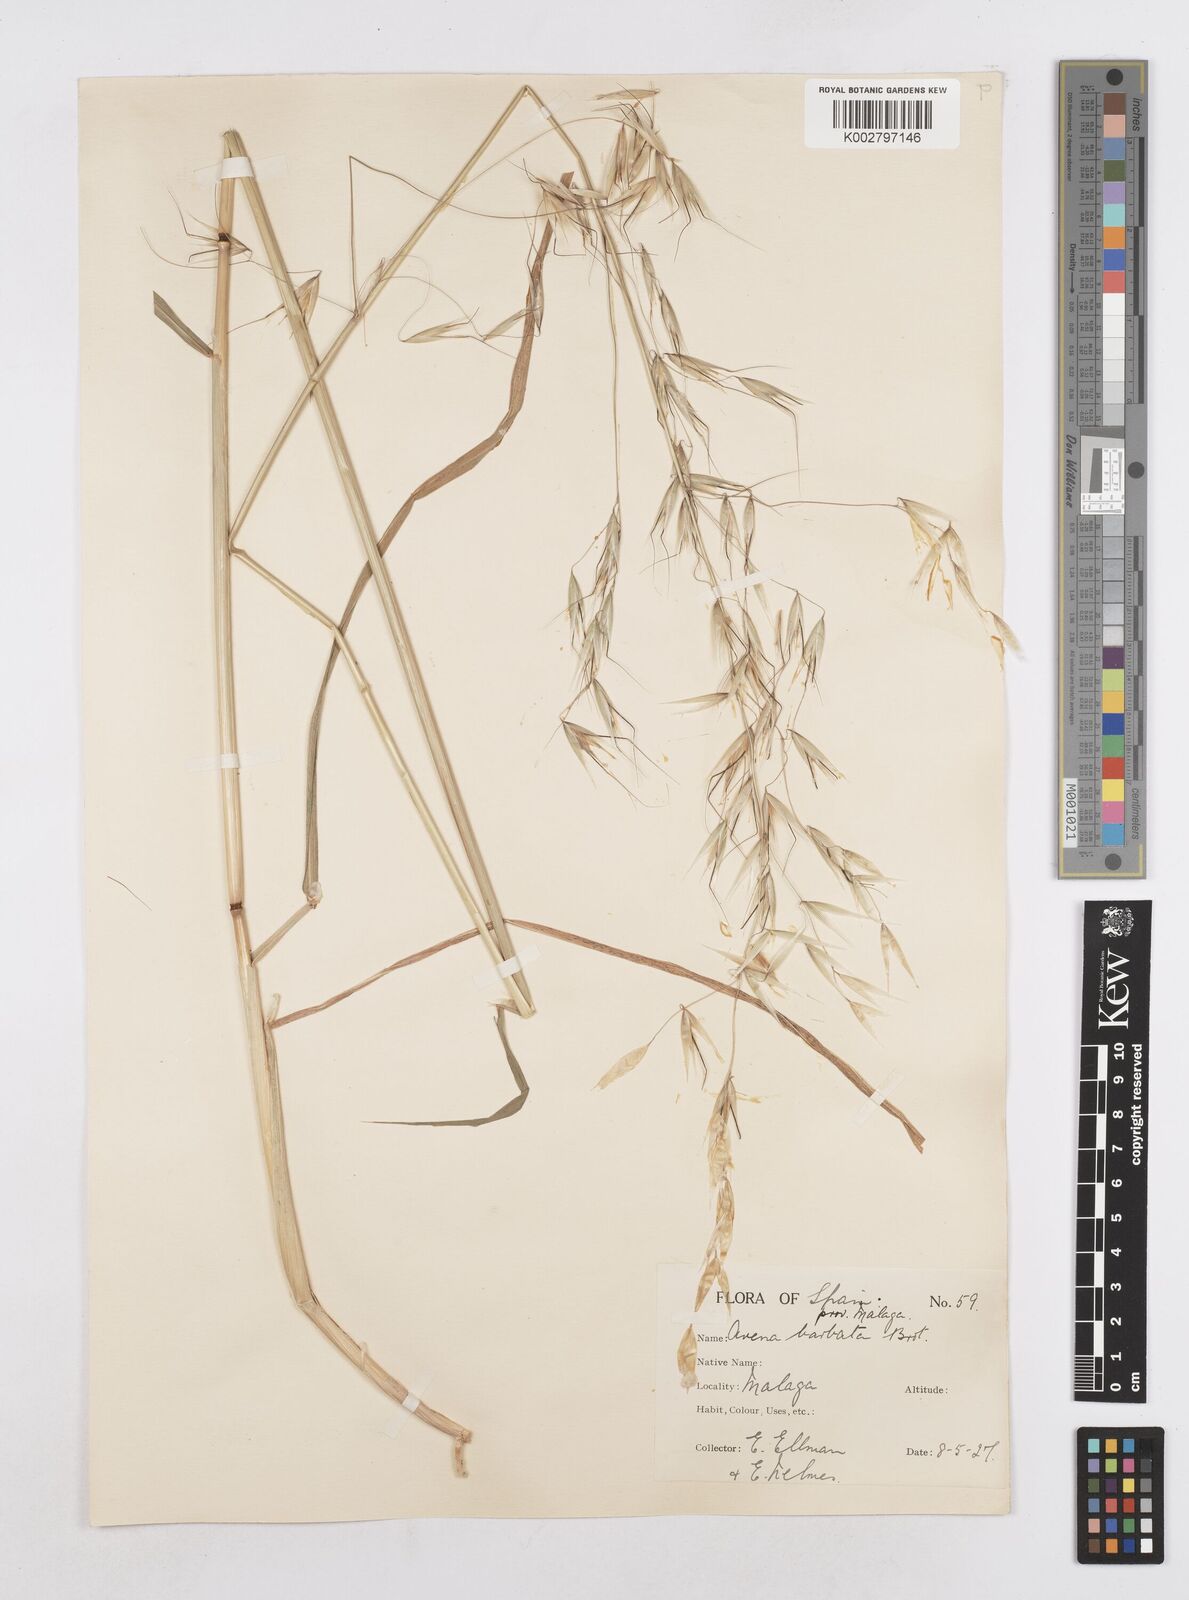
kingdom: Plantae
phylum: Tracheophyta
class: Liliopsida
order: Poales
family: Poaceae
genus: Avena
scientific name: Avena
